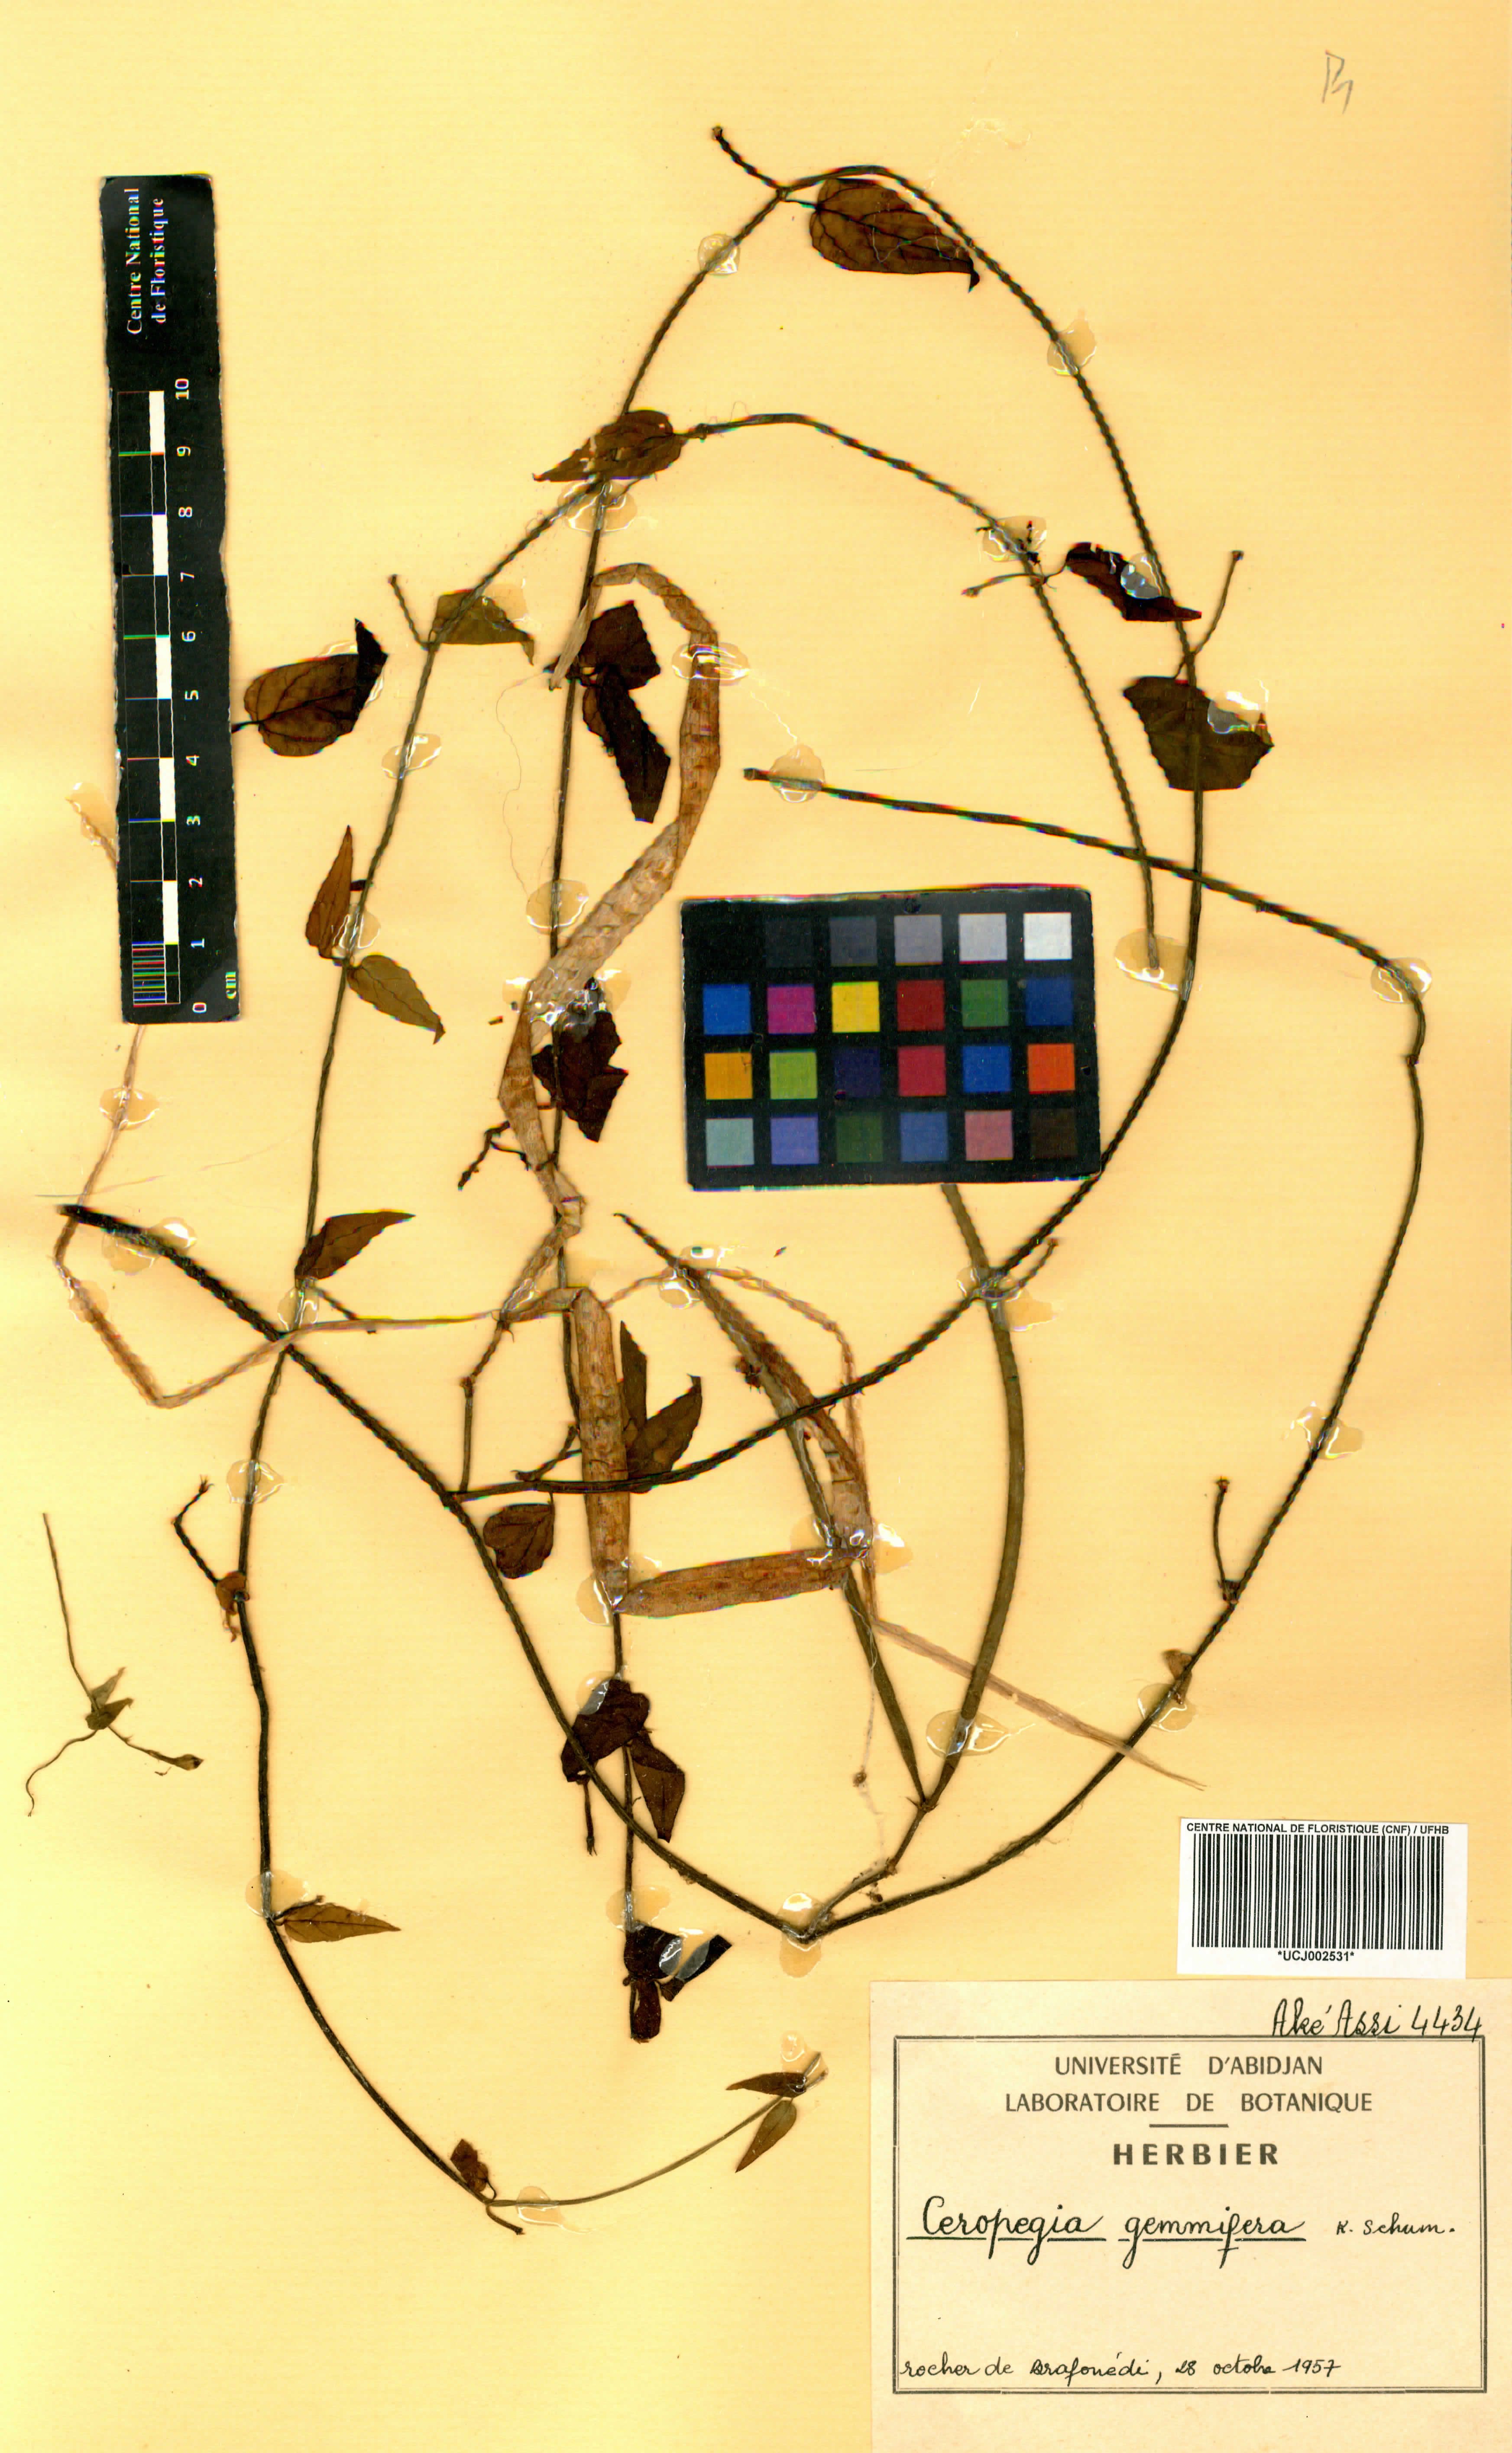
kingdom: Plantae
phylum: Tracheophyta
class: Magnoliopsida
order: Gentianales
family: Apocynaceae
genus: Ceropegia
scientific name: Ceropegia nilotica
